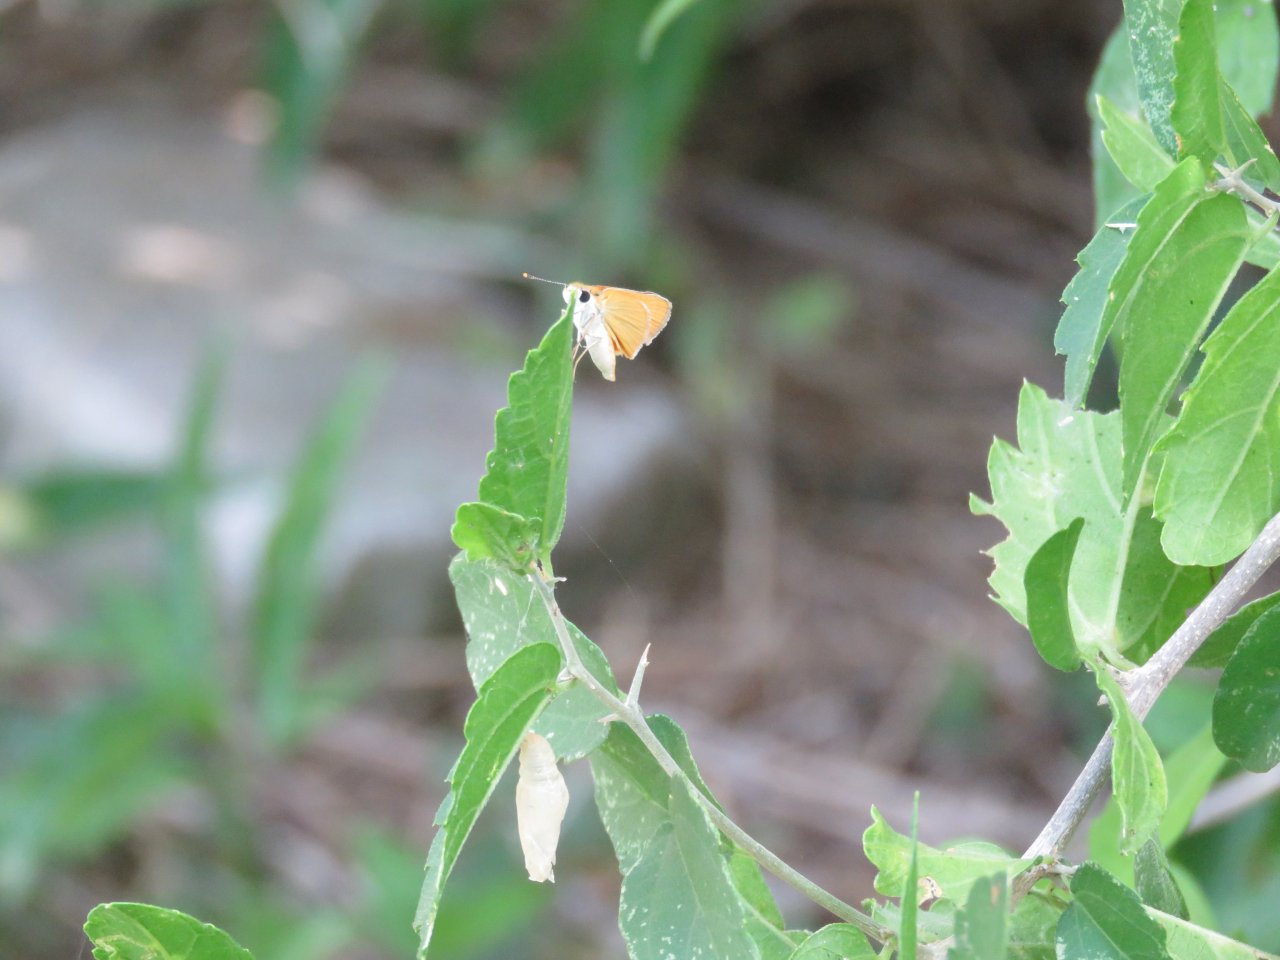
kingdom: Animalia
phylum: Arthropoda
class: Insecta
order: Lepidoptera
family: Hesperiidae
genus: Copaeodes
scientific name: Copaeodes minima
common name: Southern Skipperling
